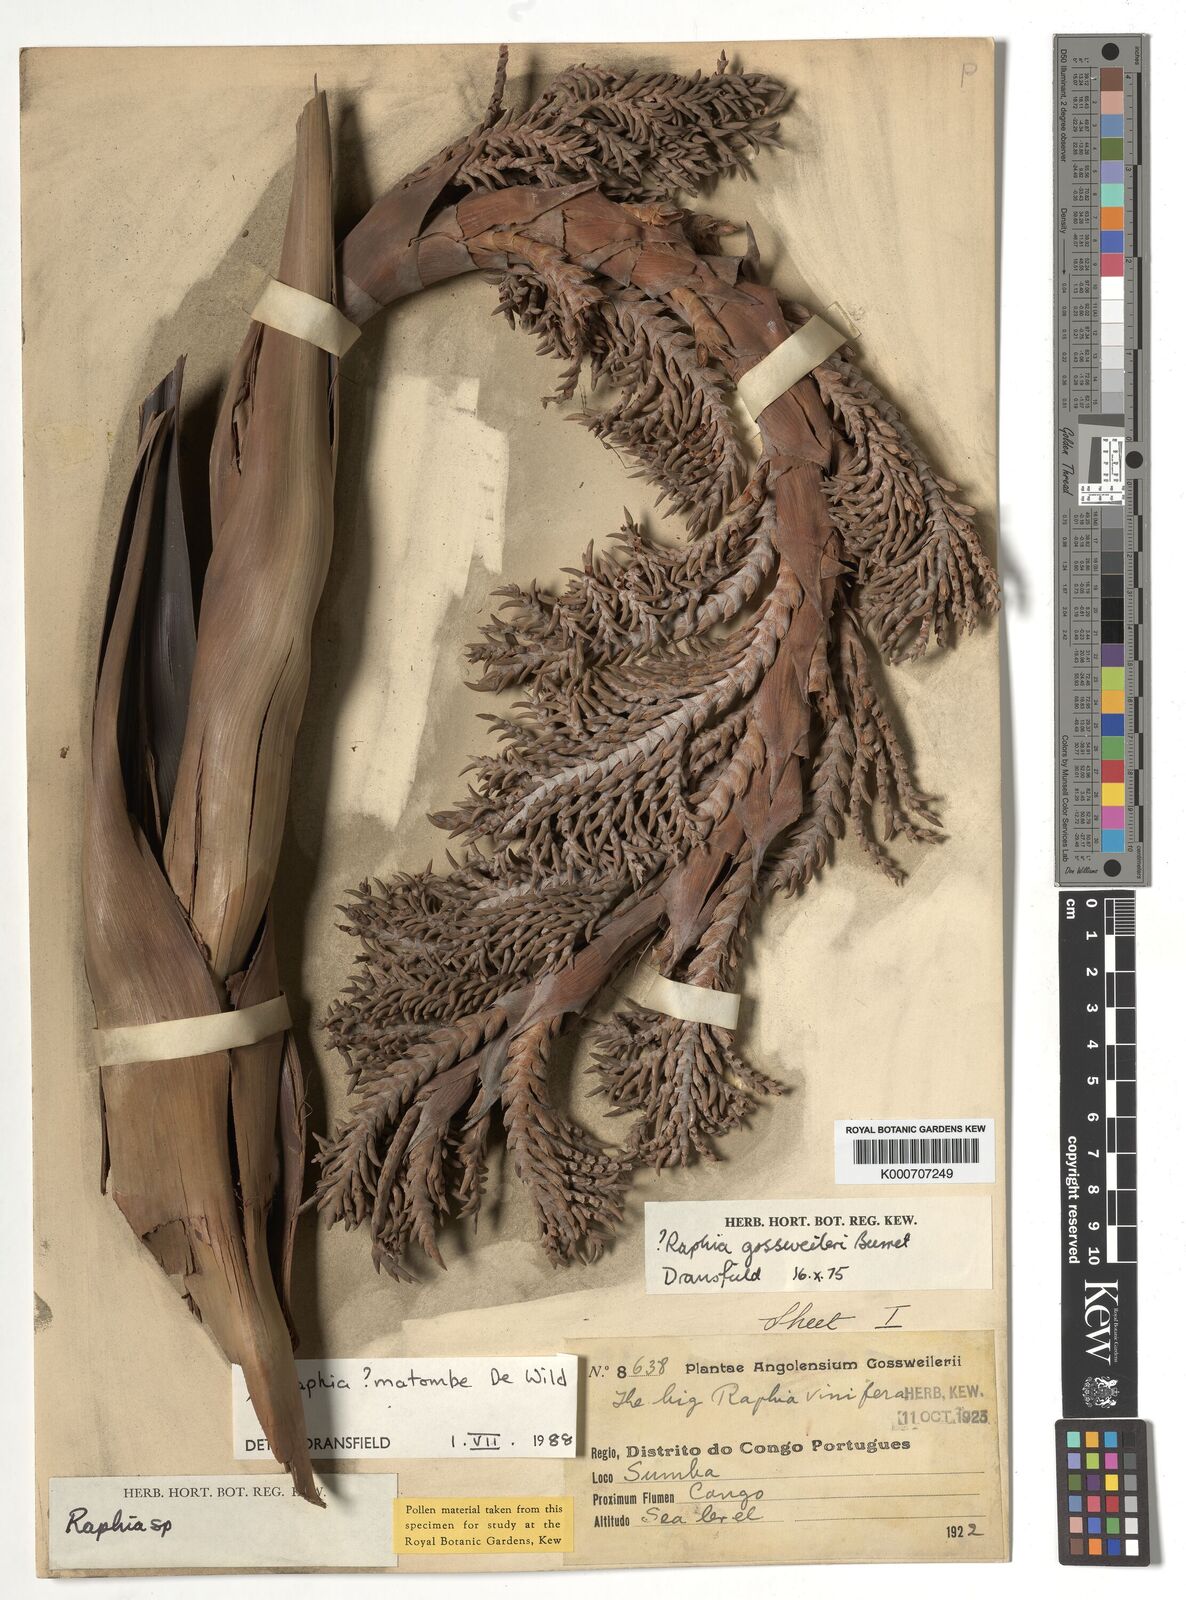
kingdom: Plantae
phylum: Tracheophyta
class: Liliopsida
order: Arecales
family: Arecaceae
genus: Raphia
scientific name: Raphia
